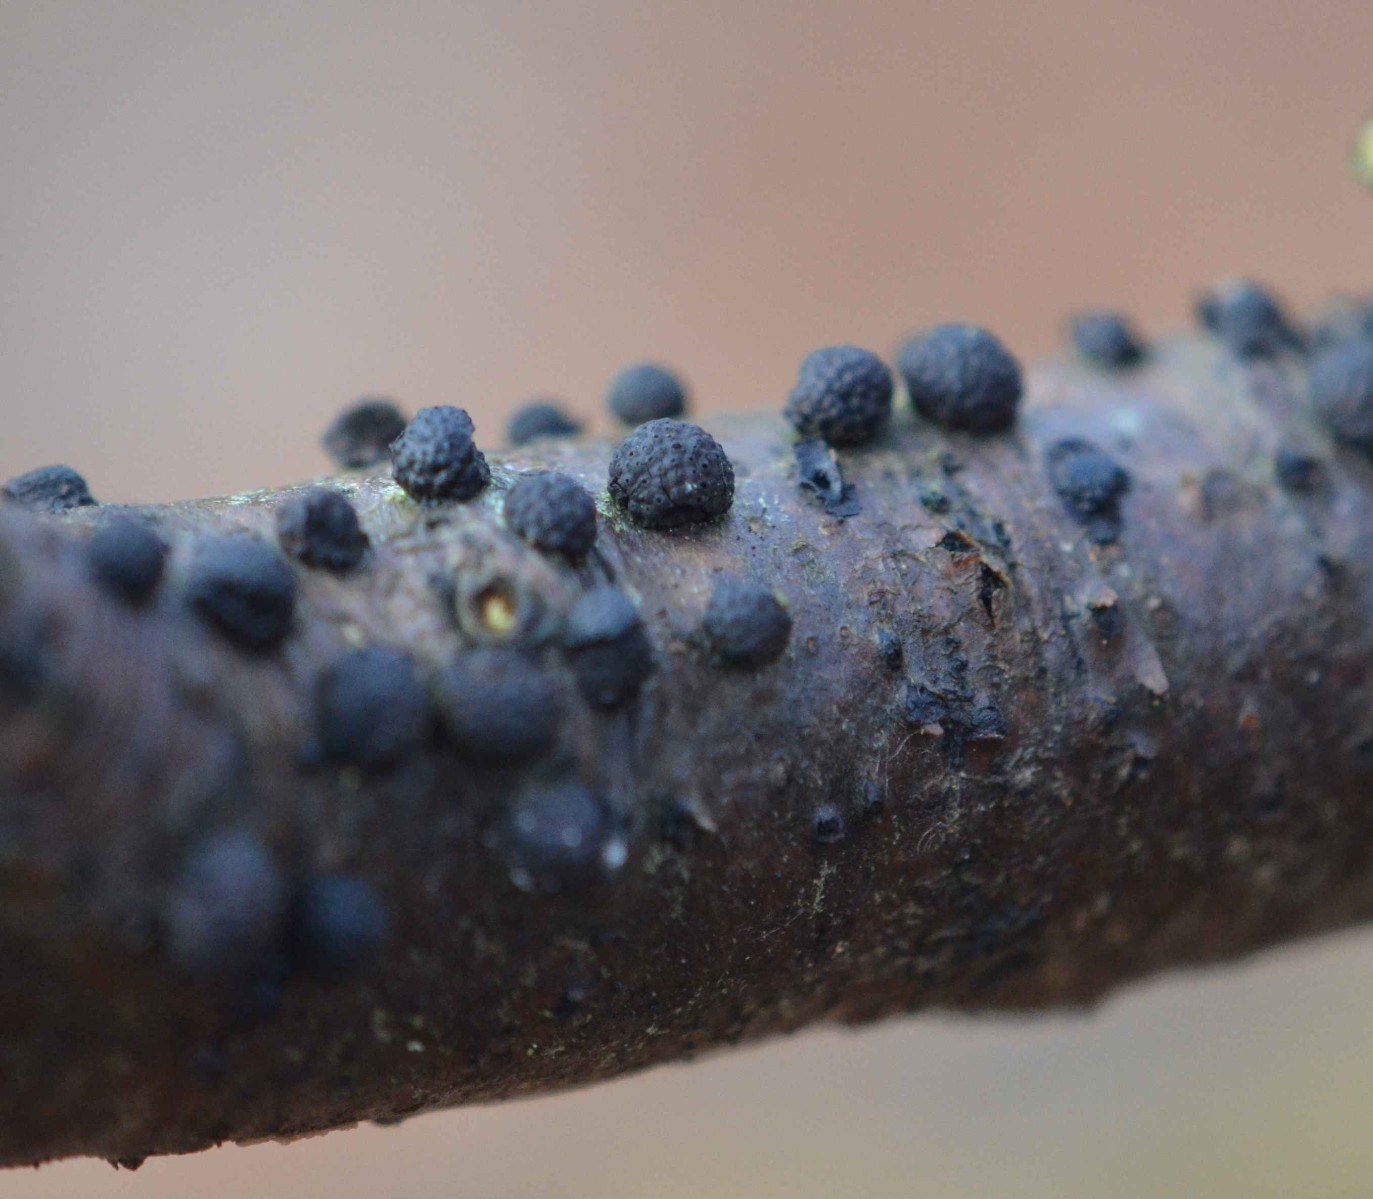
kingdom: Fungi
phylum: Ascomycota
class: Sordariomycetes
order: Xylariales
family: Hypoxylaceae
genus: Hypoxylon
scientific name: Hypoxylon
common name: kulbær
